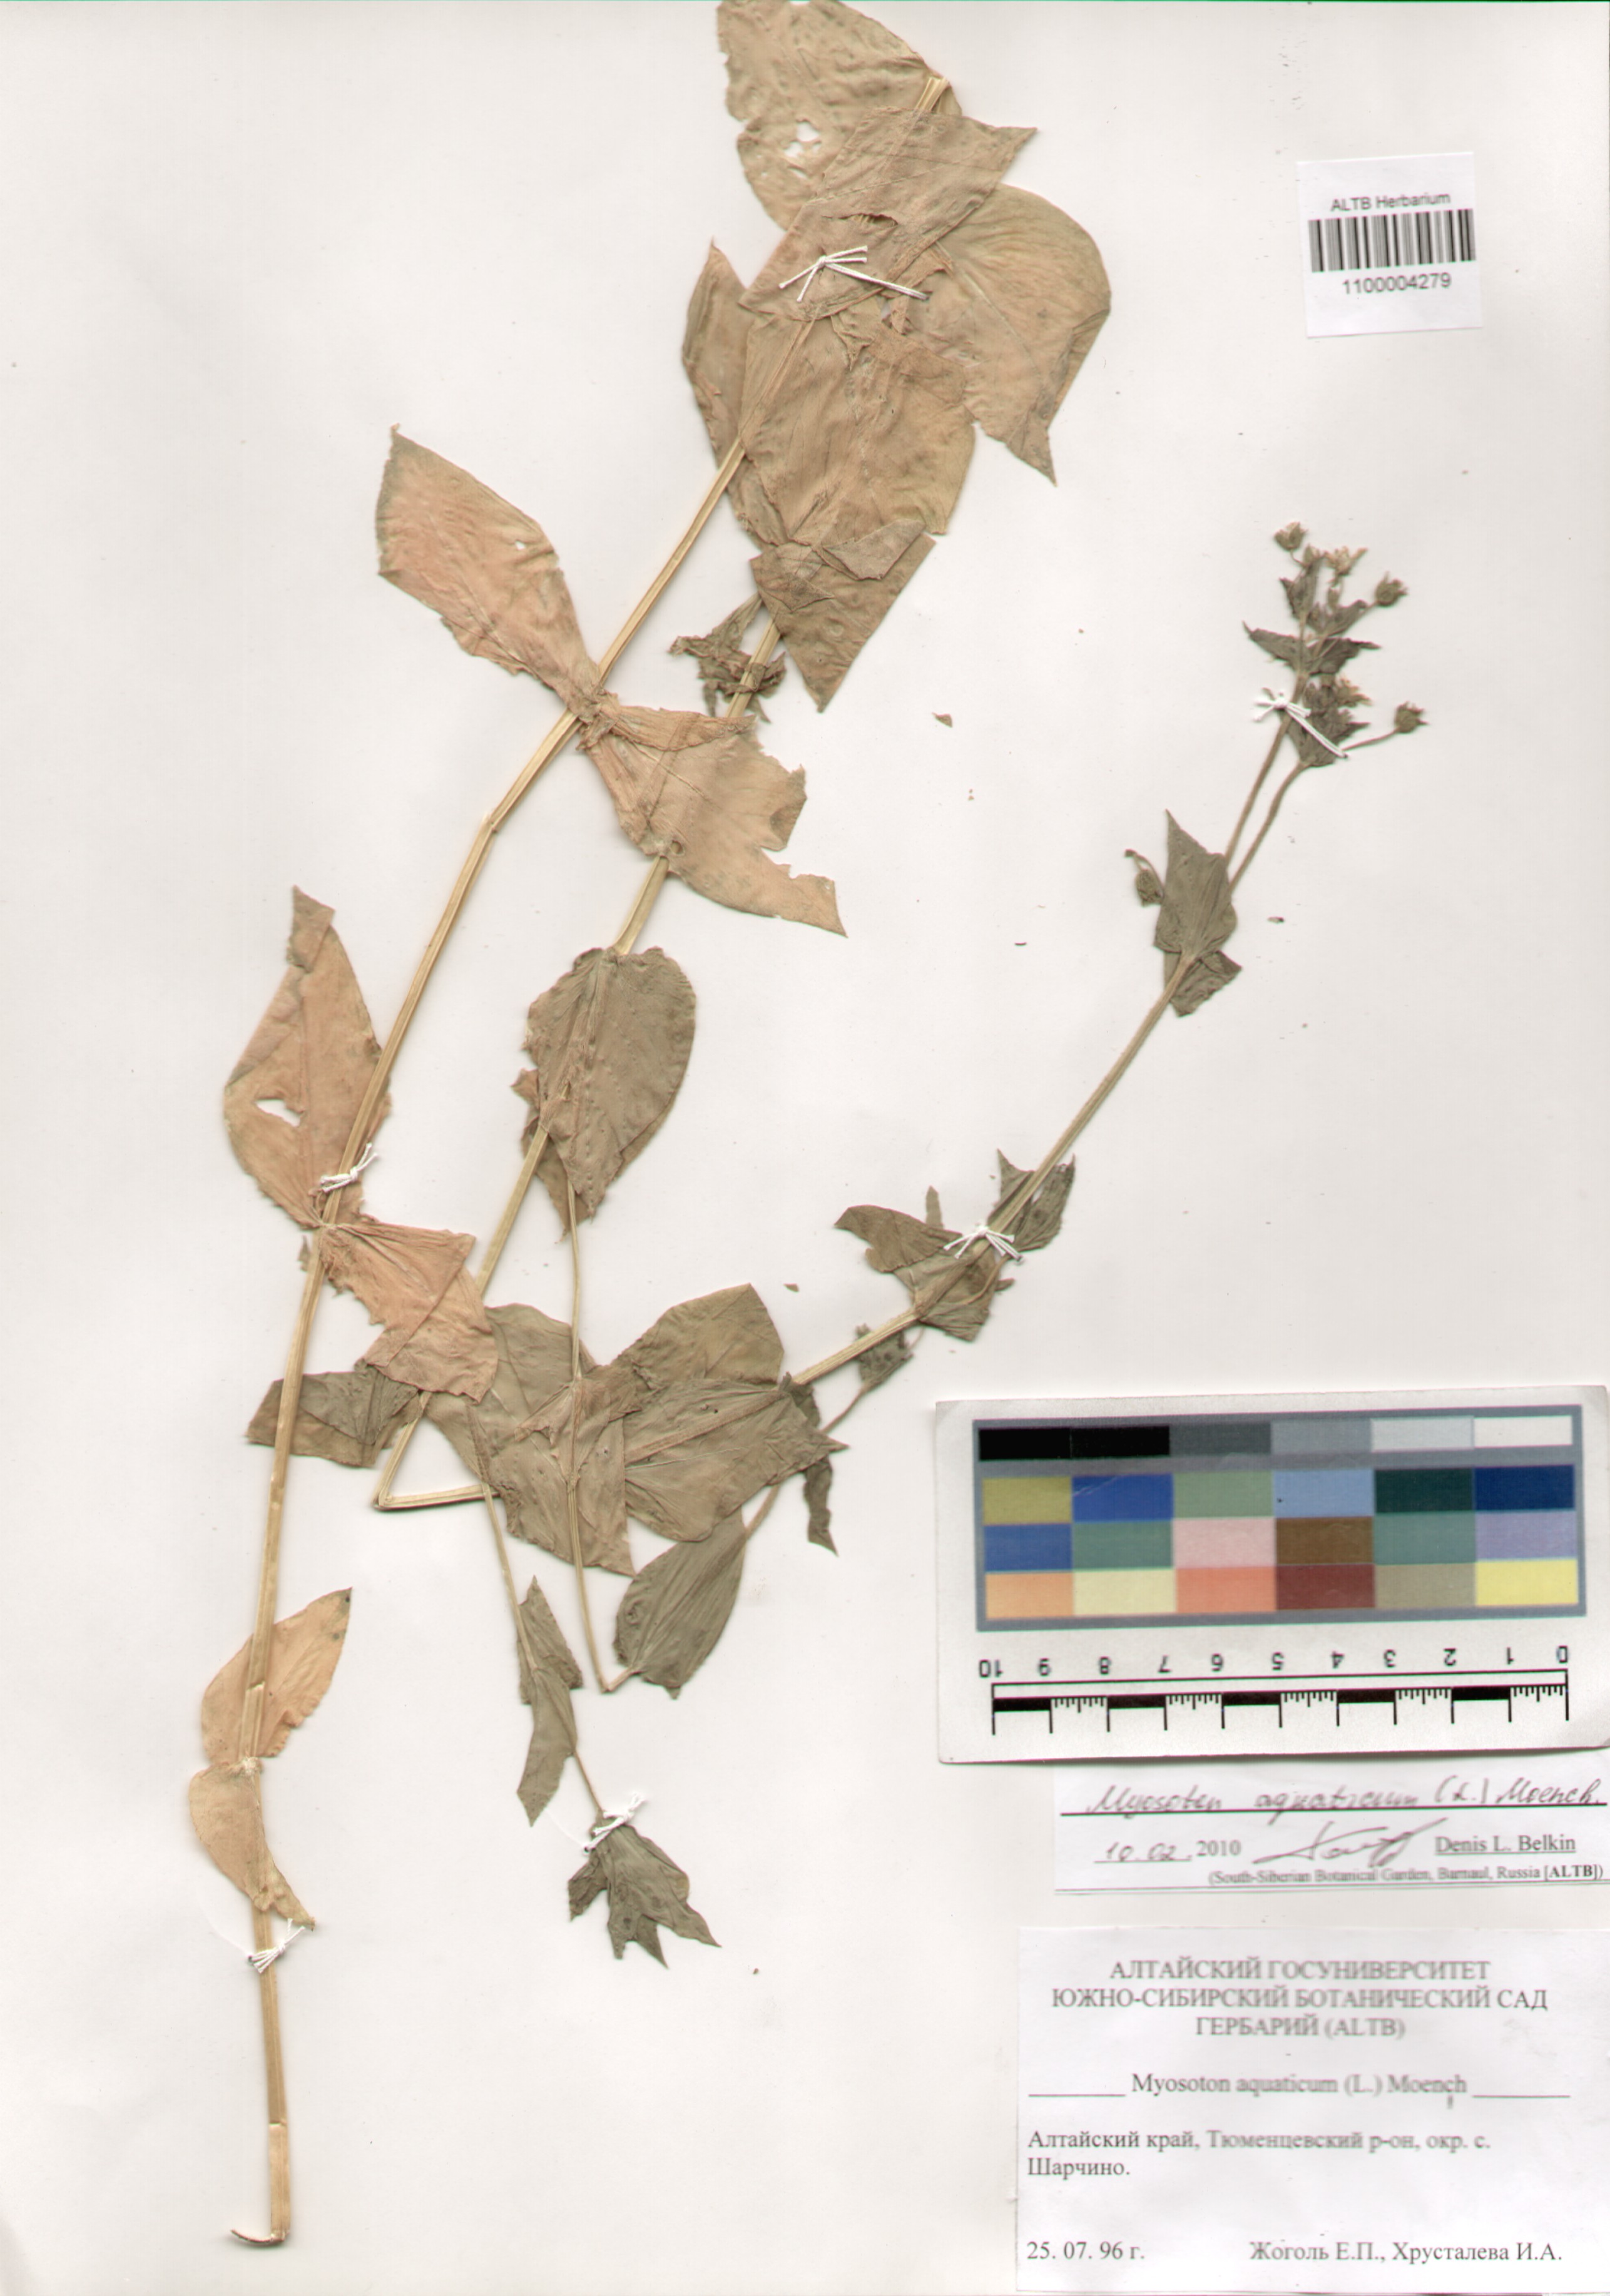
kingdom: Plantae
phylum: Tracheophyta
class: Magnoliopsida
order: Caryophyllales
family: Caryophyllaceae
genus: Stellaria
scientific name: Stellaria aquatica
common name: Water chickweed
